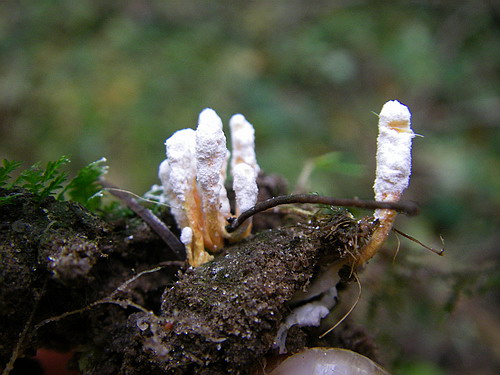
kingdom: Fungi
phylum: Ascomycota
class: Sordariomycetes
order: Hypocreales
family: Cordycipitaceae
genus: Cordyceps
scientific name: Cordyceps farinosa
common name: melet snyltekølle
